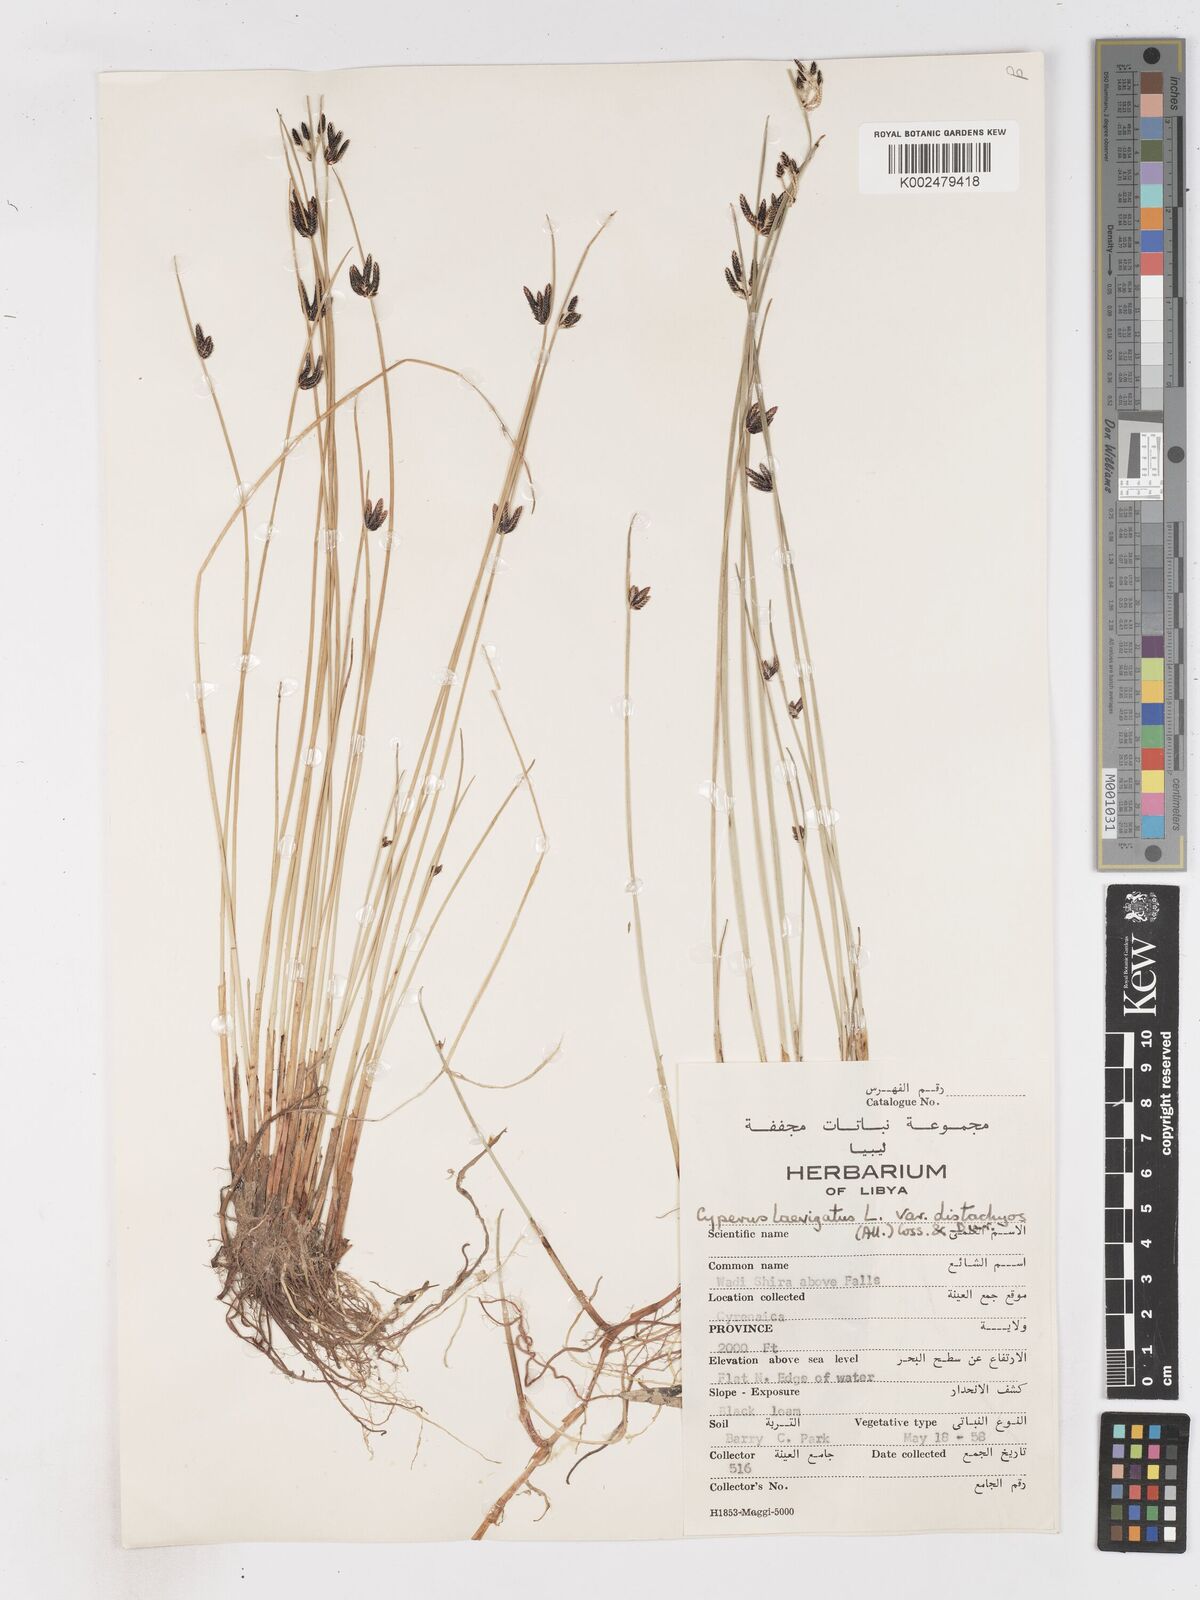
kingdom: Plantae
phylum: Tracheophyta
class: Liliopsida
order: Poales
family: Cyperaceae
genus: Cyperus
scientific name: Cyperus laevigatus
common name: Smooth flat sedge
